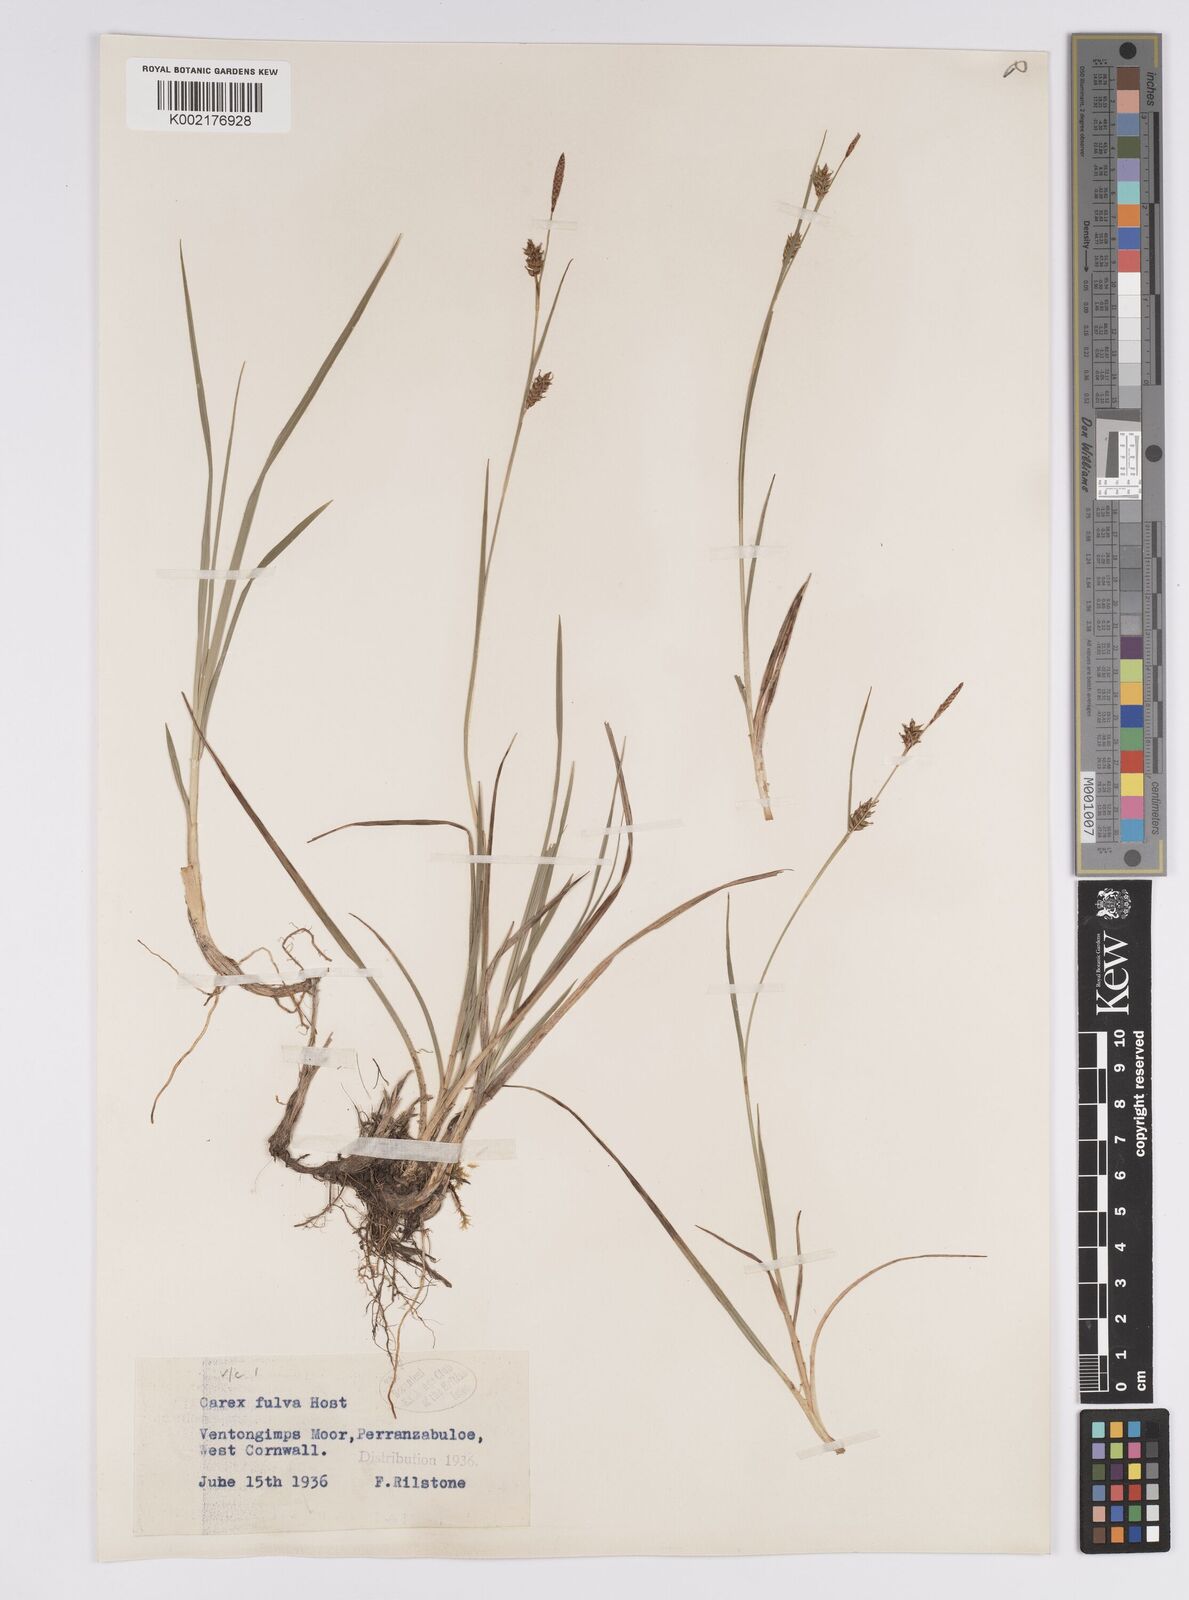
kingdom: Plantae
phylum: Tracheophyta
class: Liliopsida
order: Poales
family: Cyperaceae
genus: Carex
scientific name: Carex hostiana
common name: Tawny sedge
